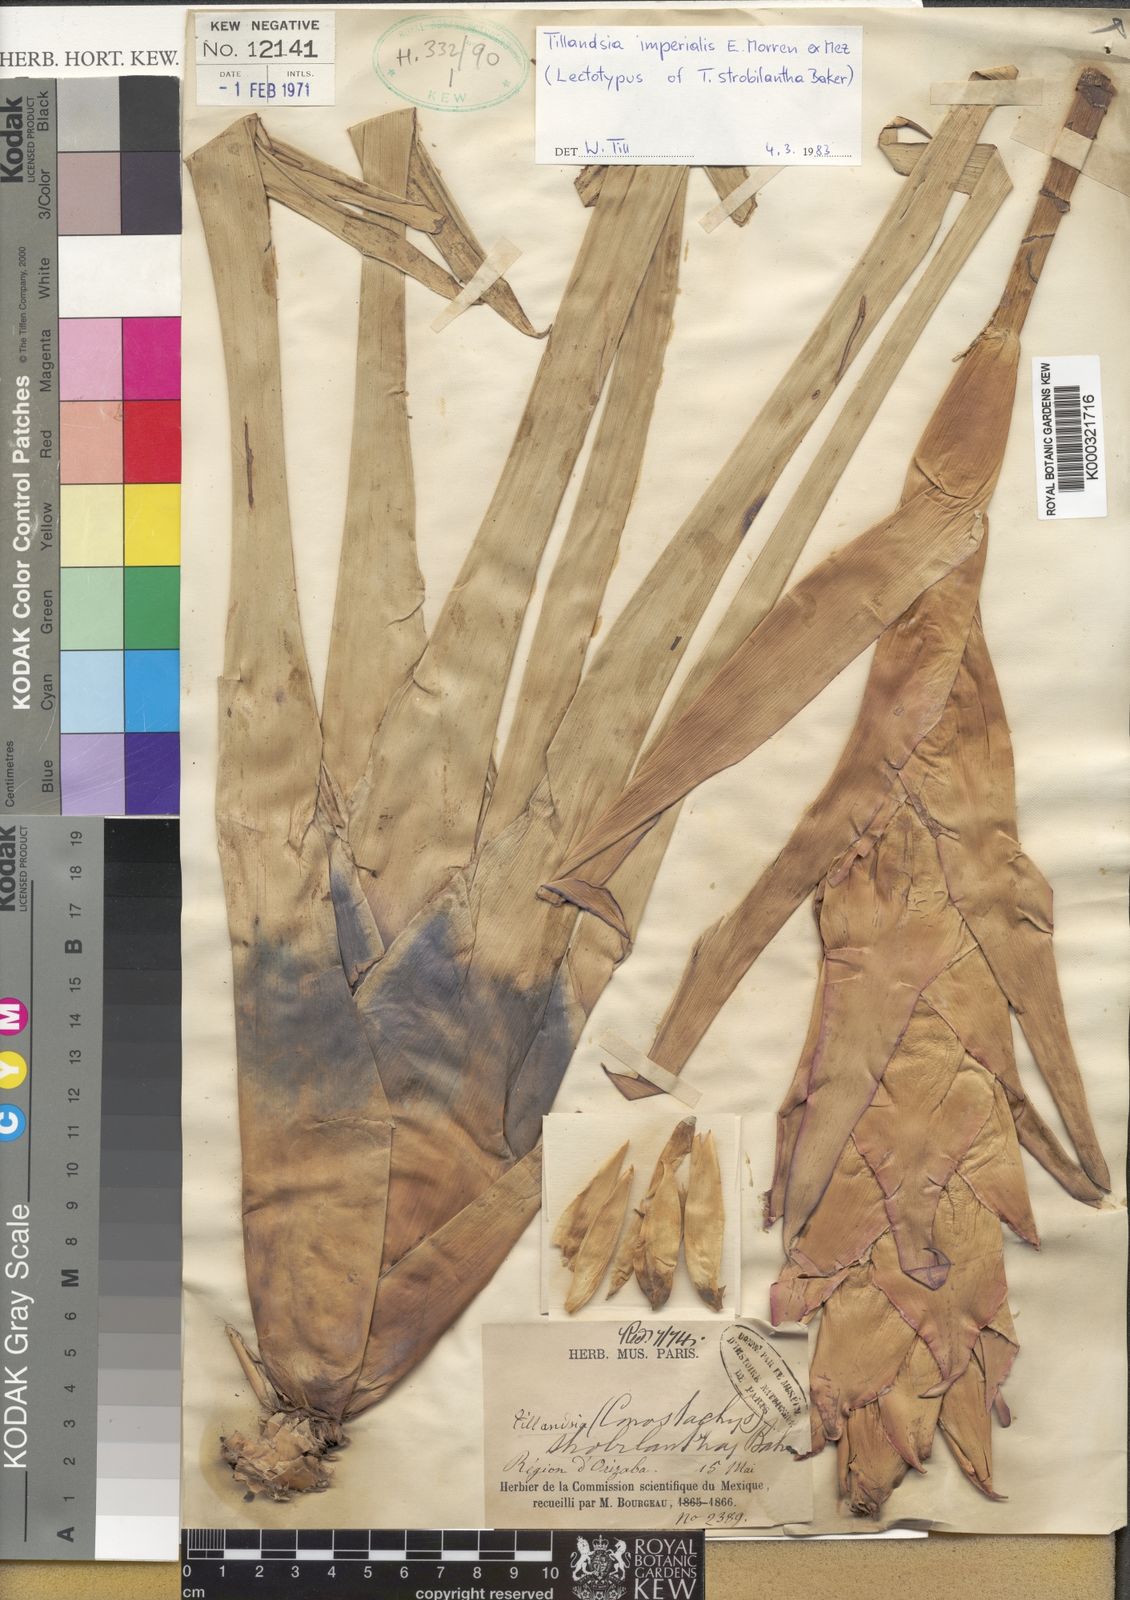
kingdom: Plantae
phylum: Tracheophyta
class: Liliopsida
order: Poales
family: Bromeliaceae
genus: Tillandsia
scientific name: Tillandsia
